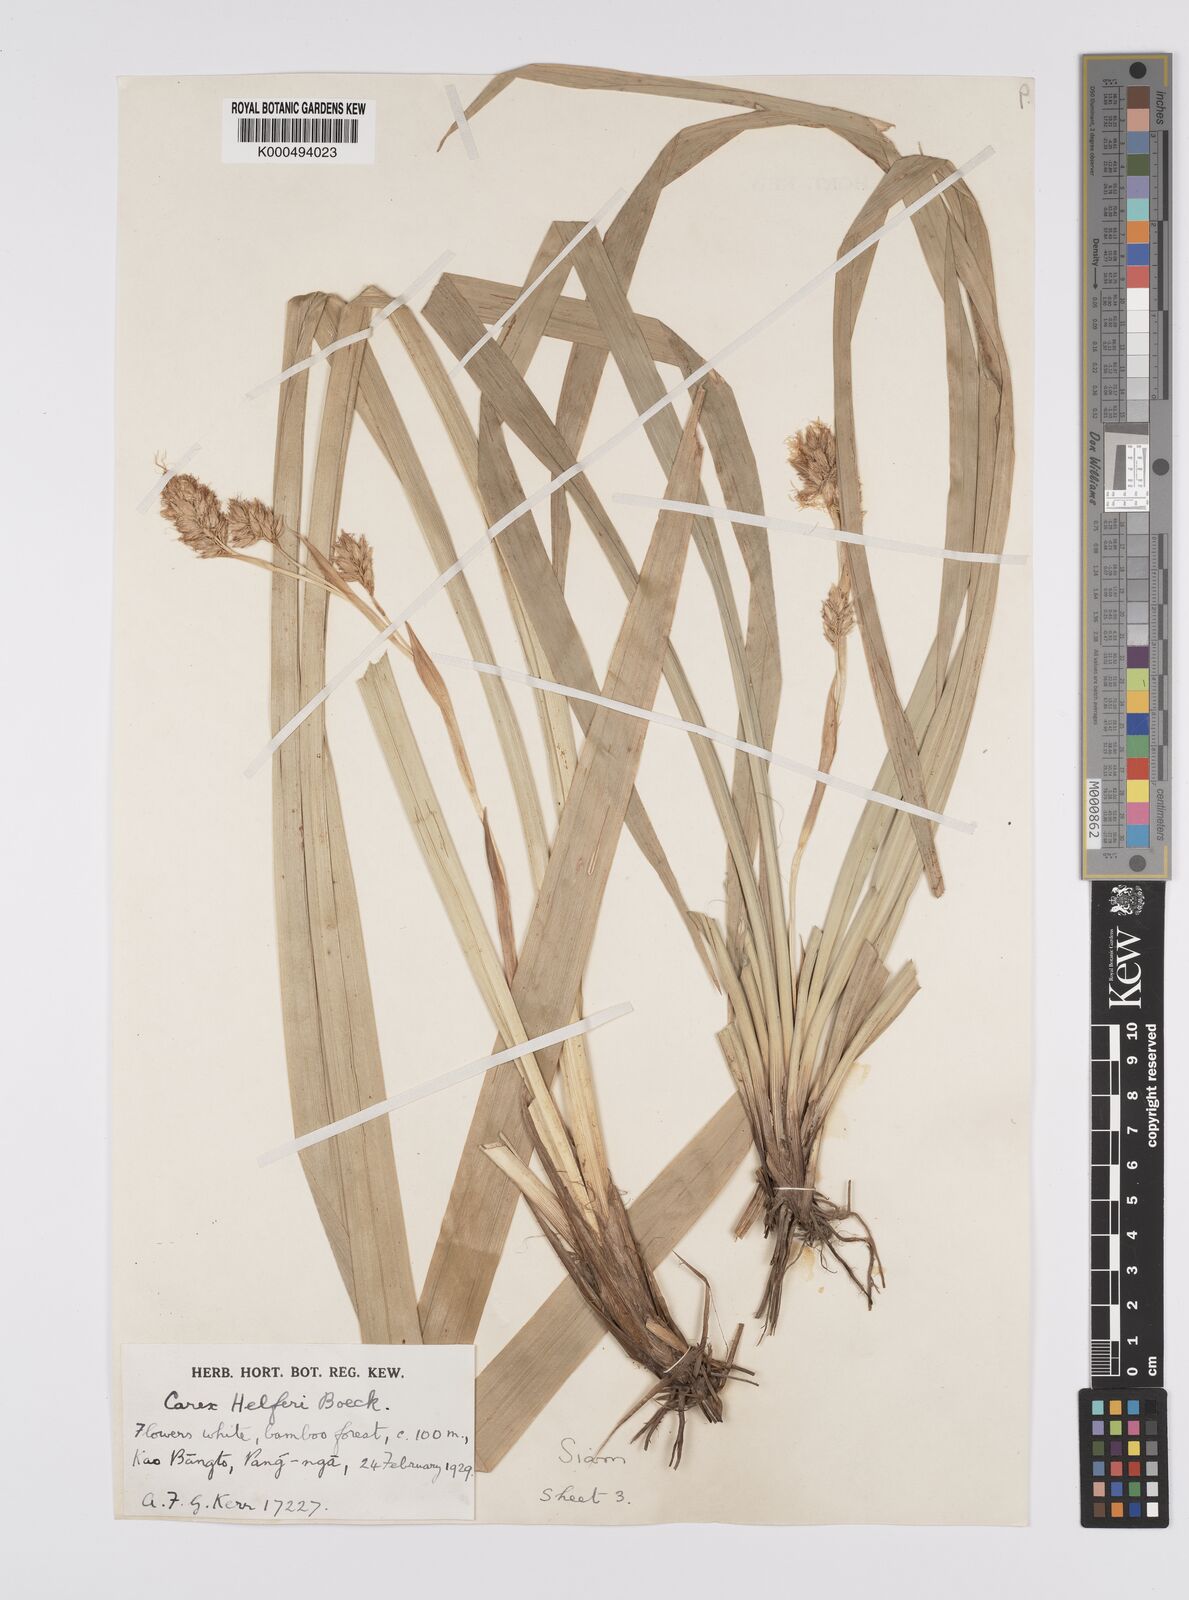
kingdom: Plantae
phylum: Tracheophyta
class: Liliopsida
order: Poales
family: Cyperaceae
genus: Carex
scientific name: Carex helferi
